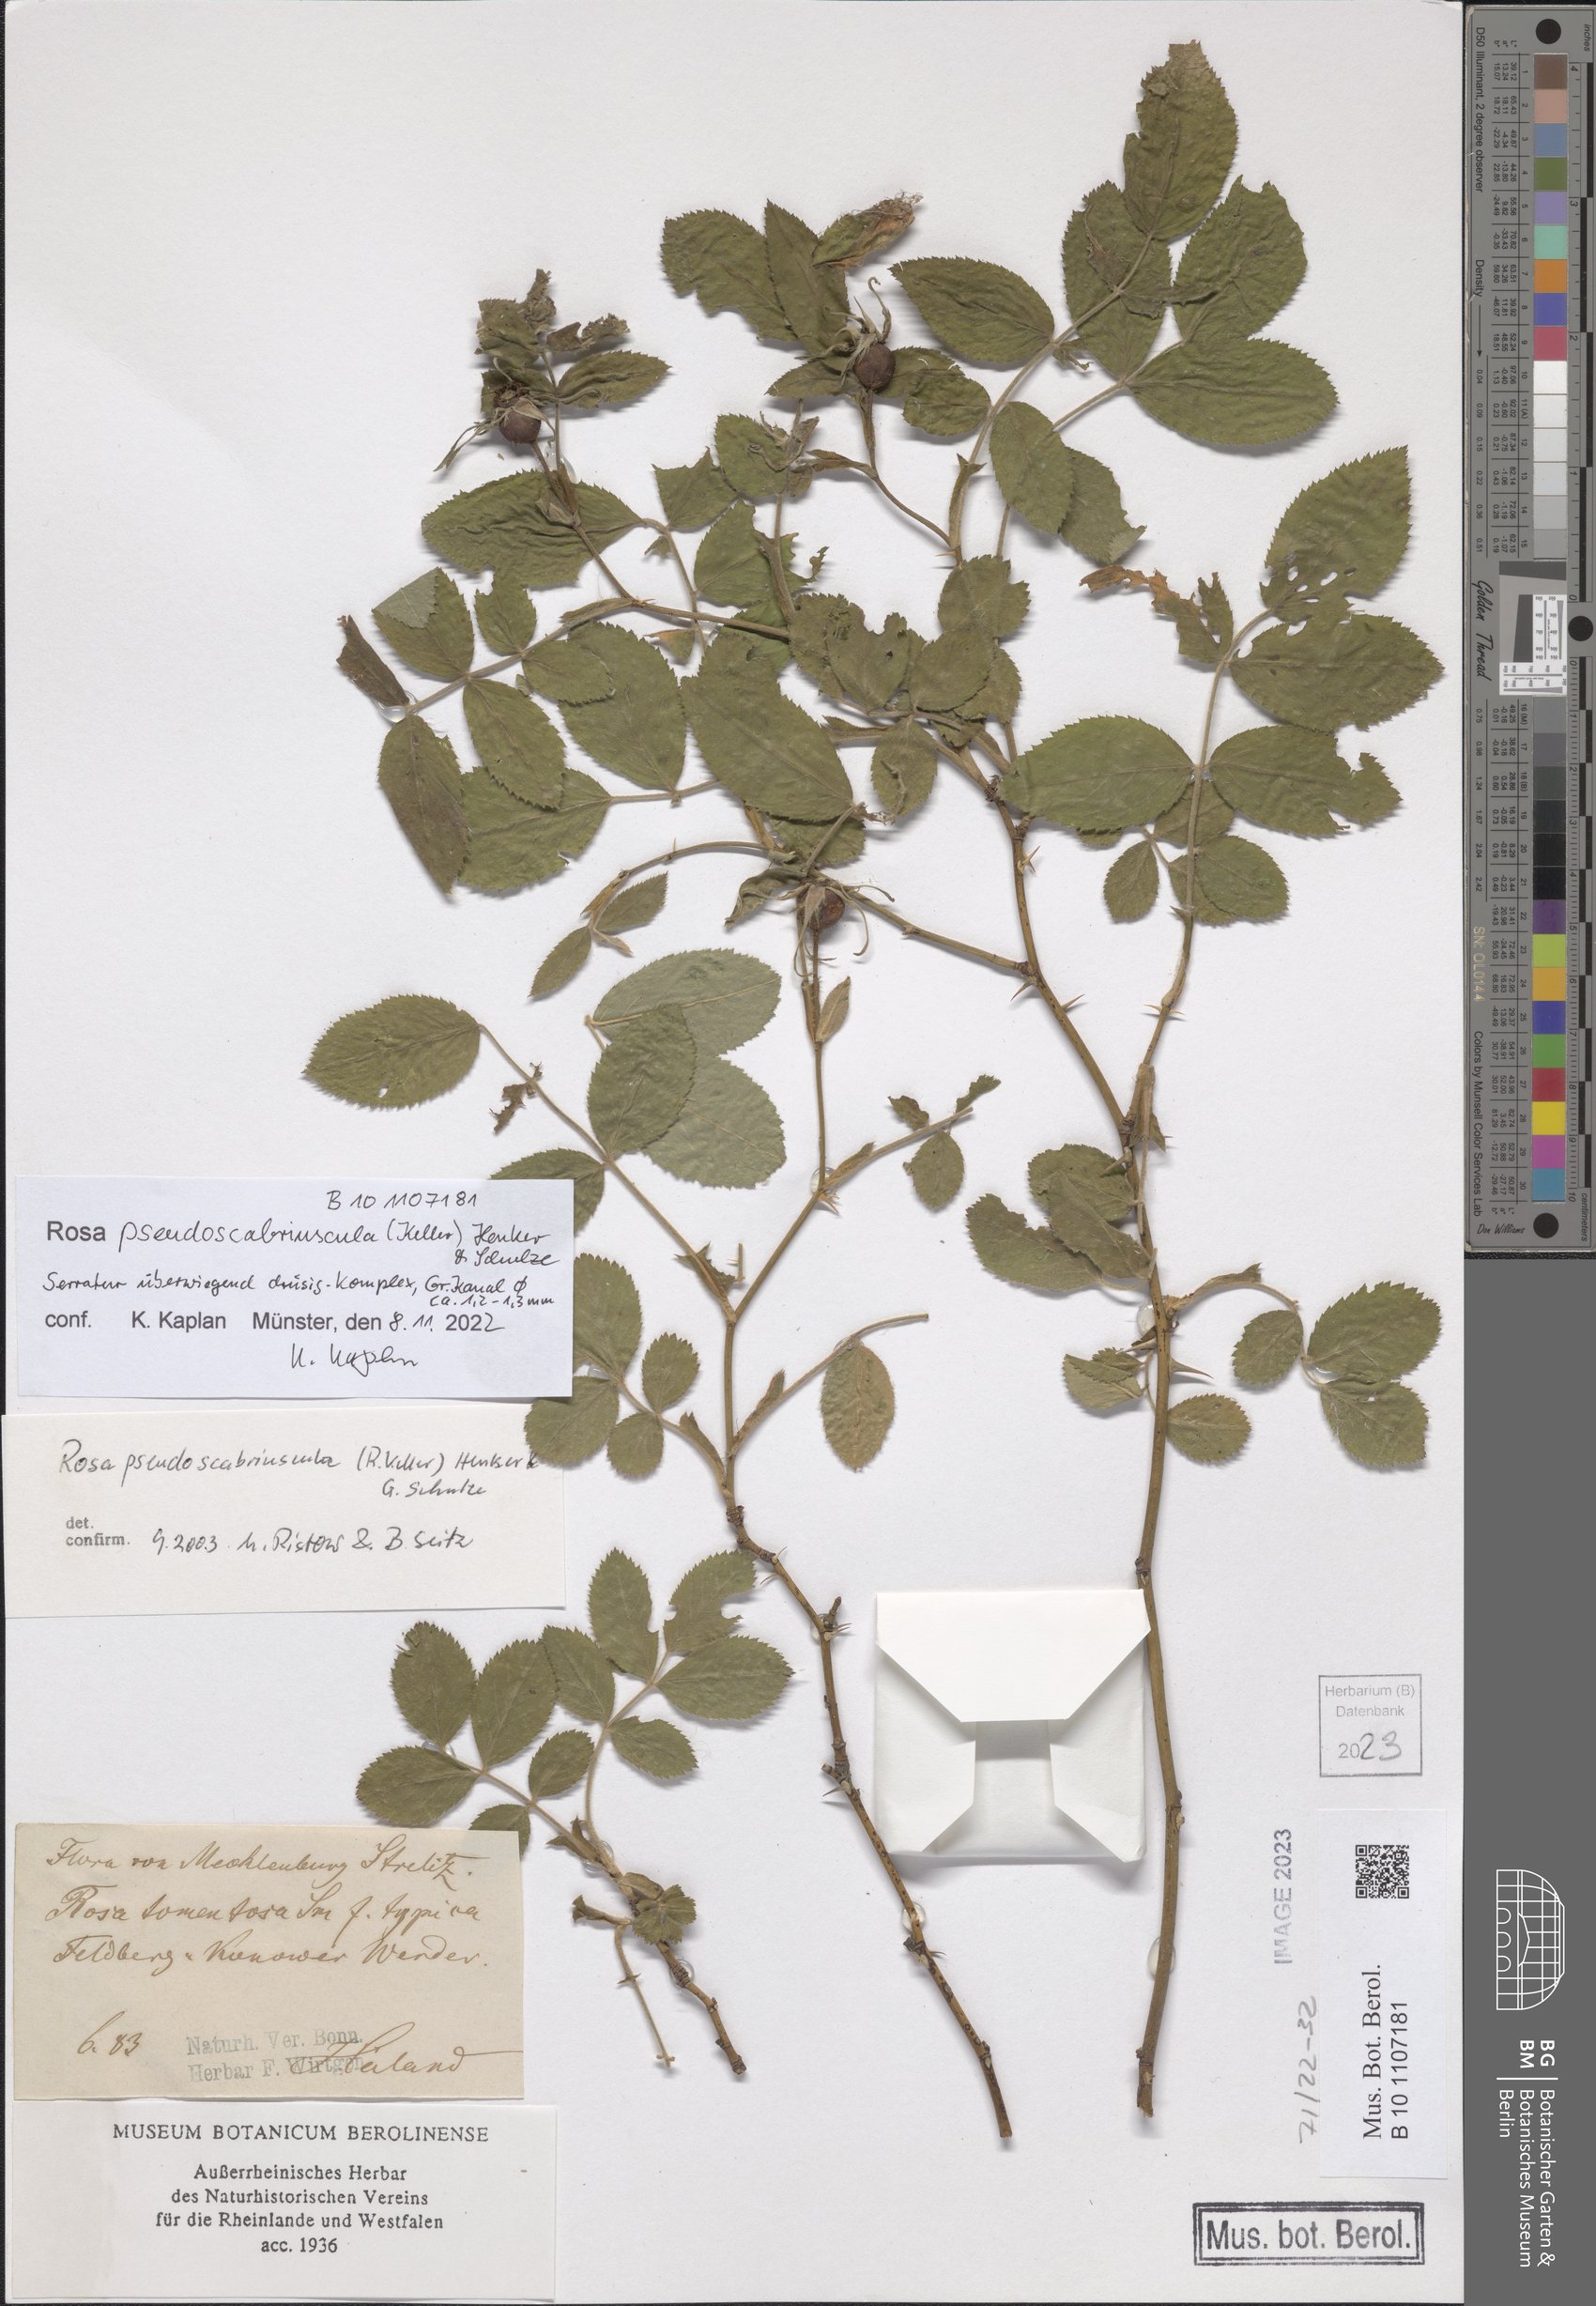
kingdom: Plantae
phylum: Tracheophyta
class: Magnoliopsida
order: Rosales
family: Rosaceae
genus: Rosa
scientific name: Rosa pseudoscabriuscula
